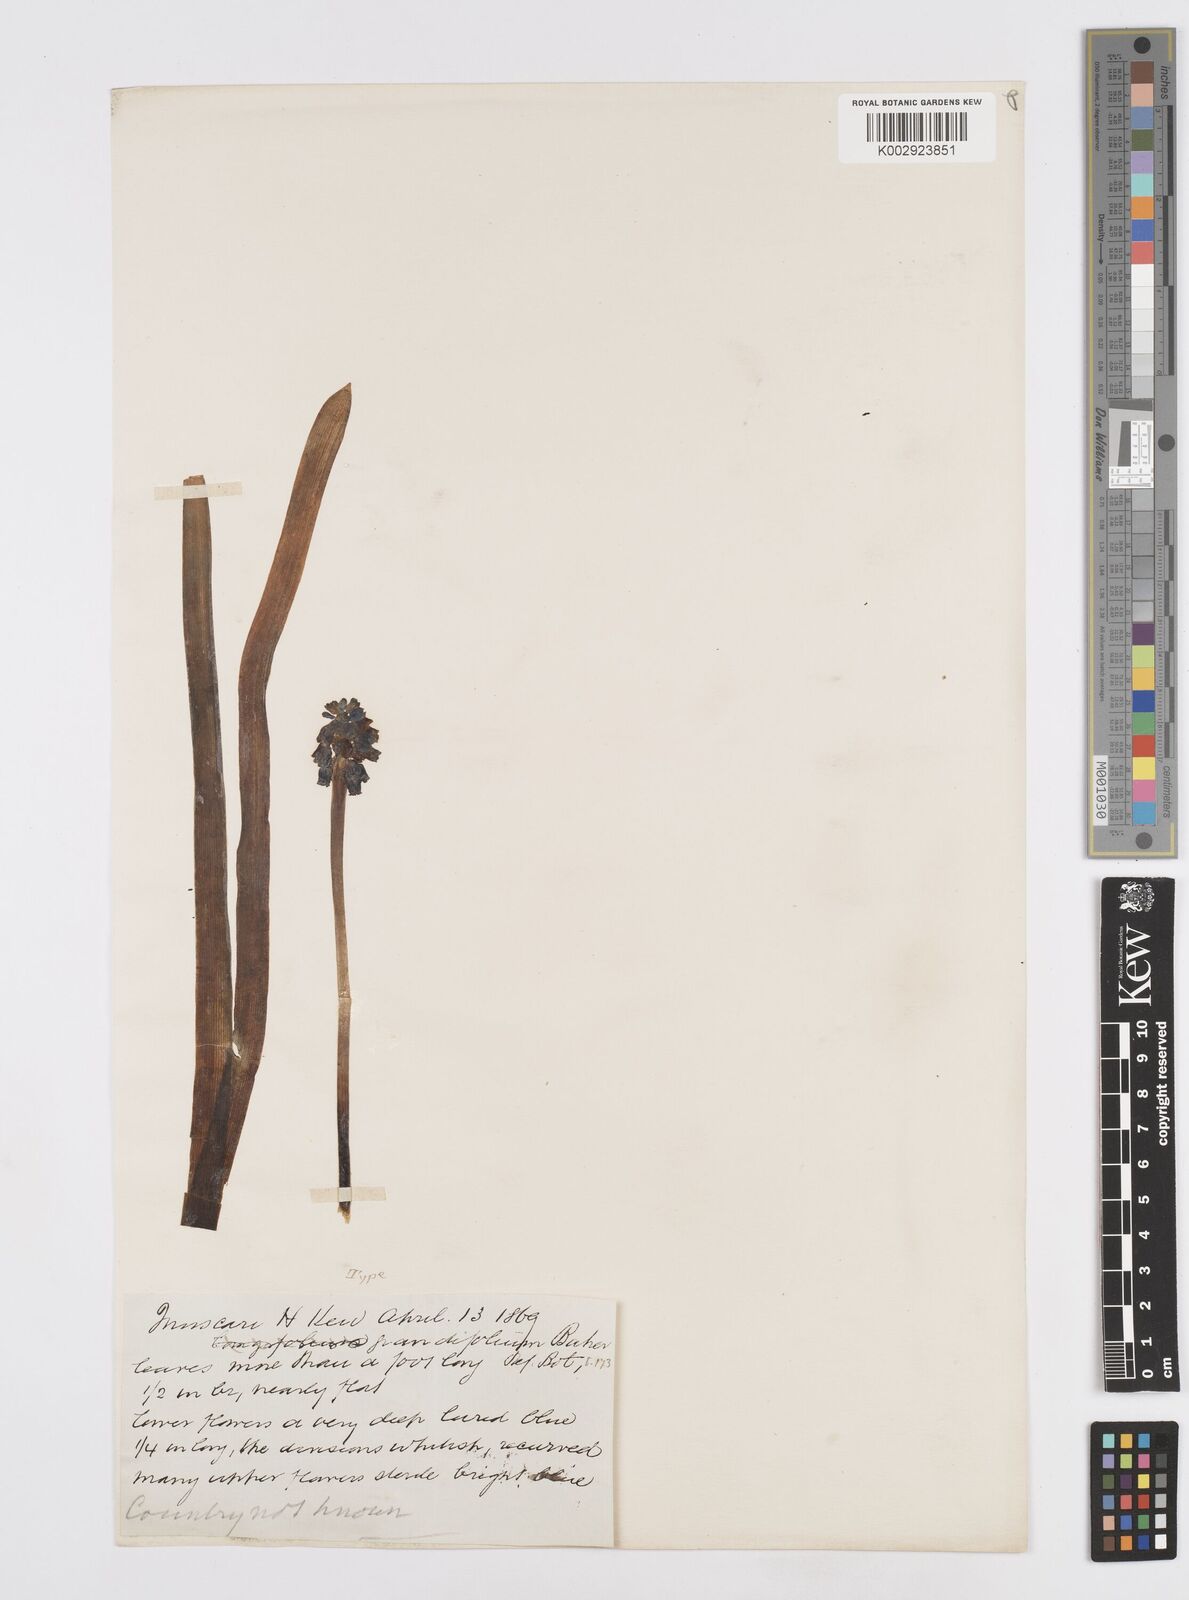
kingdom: Plantae
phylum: Tracheophyta
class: Liliopsida
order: Asparagales
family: Asparagaceae
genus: Muscari
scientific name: Muscari neglectum
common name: Grape-hyacinth
